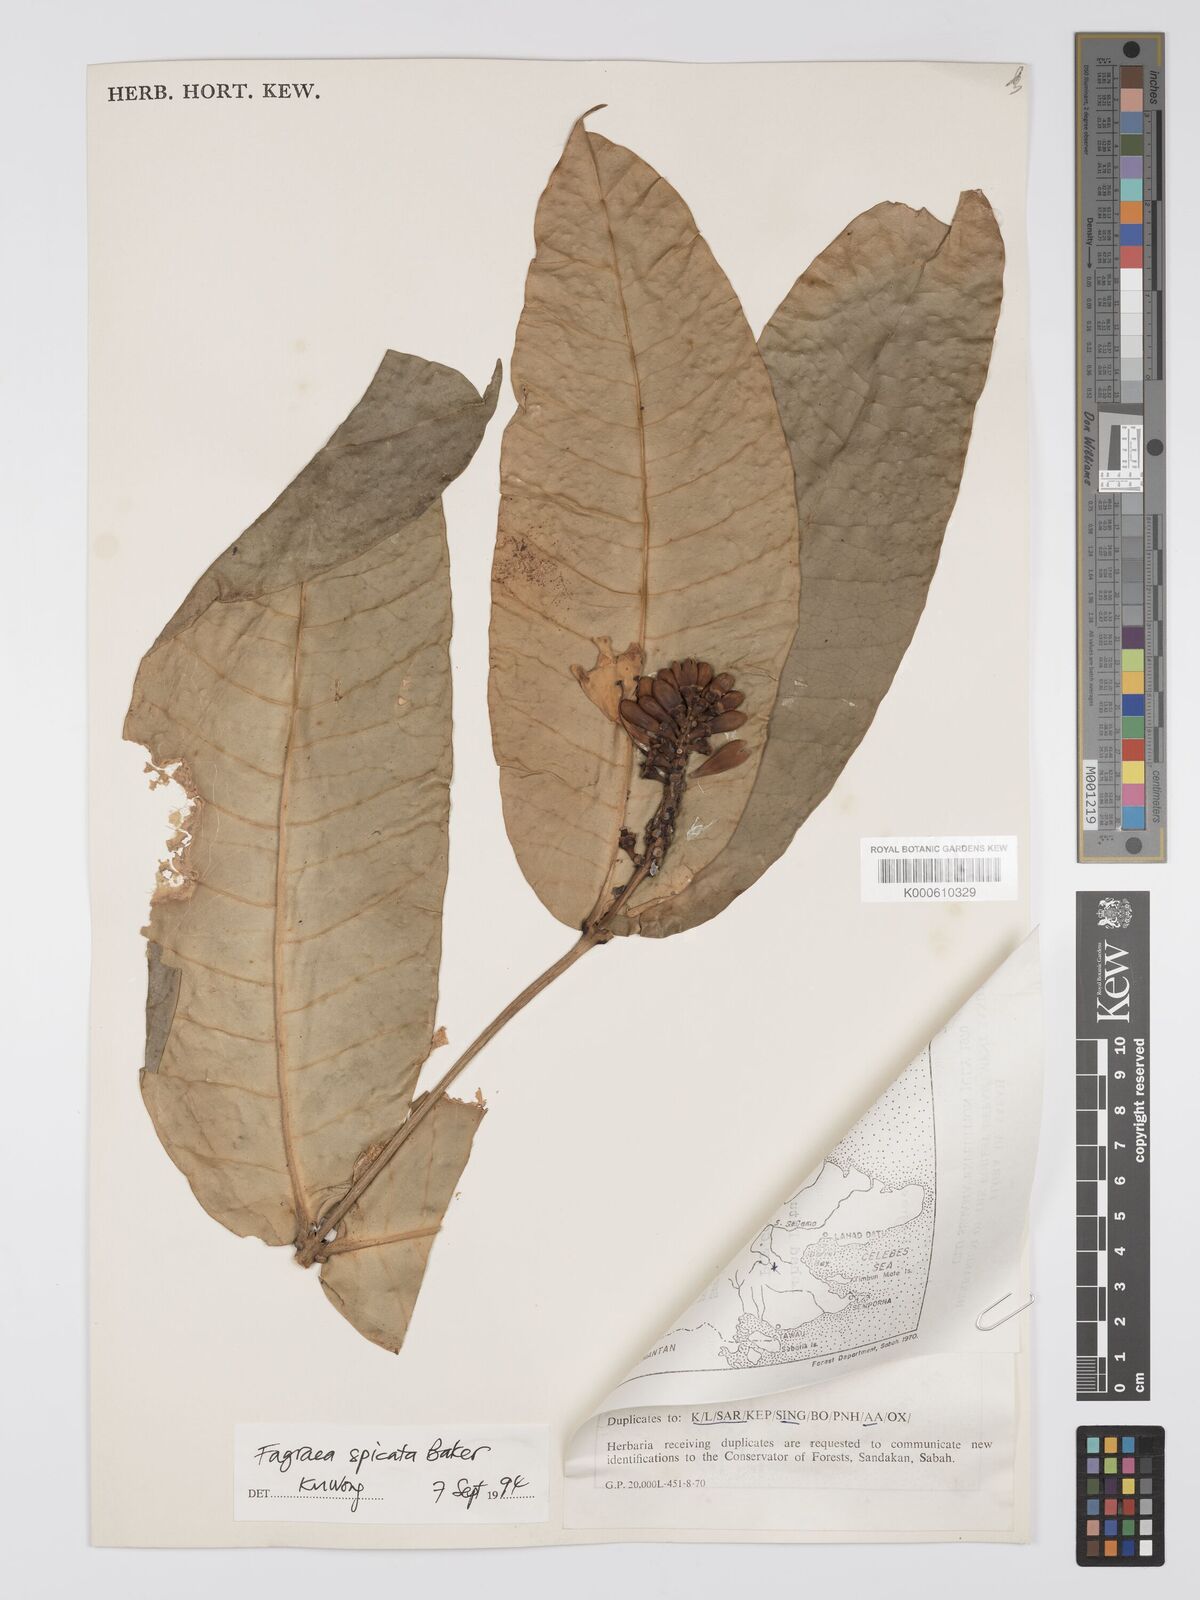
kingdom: Plantae
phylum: Tracheophyta
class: Magnoliopsida
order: Gentianales
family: Gentianaceae
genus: Utania
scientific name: Utania spicata
